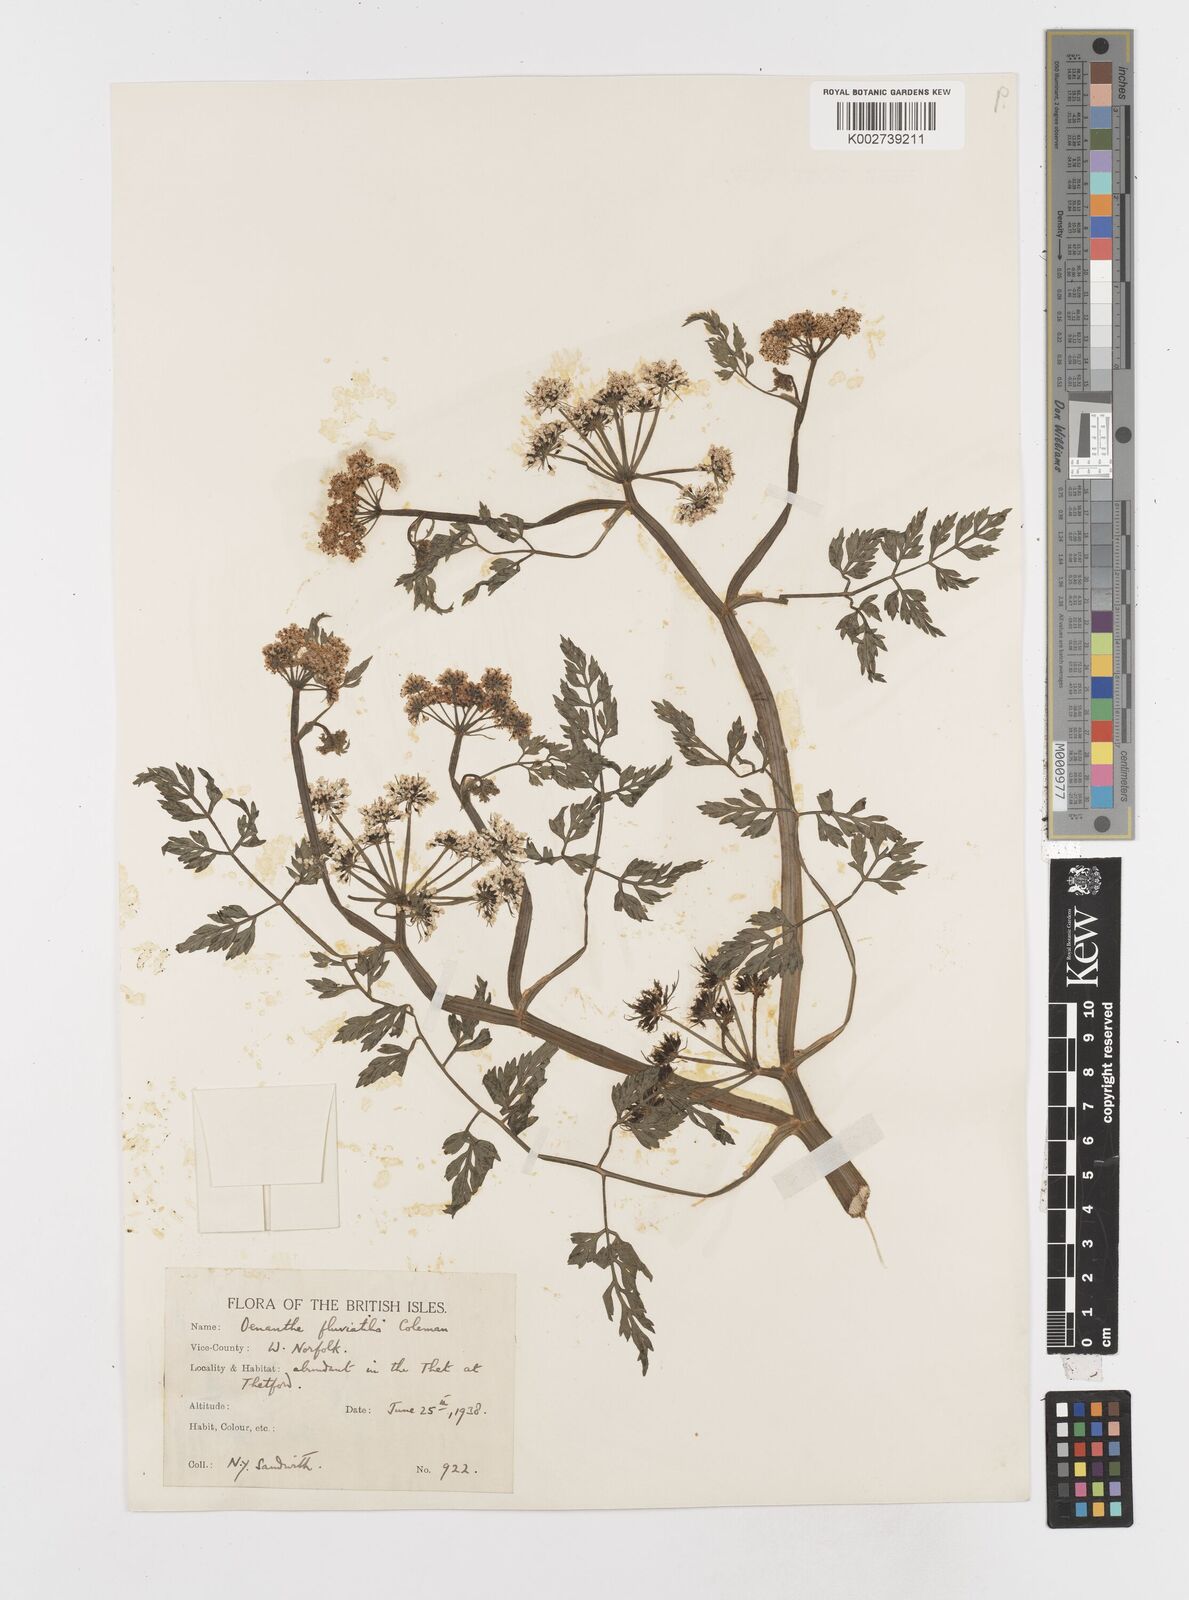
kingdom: Plantae
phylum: Tracheophyta
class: Magnoliopsida
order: Apiales
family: Apiaceae
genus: Oenanthe
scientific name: Oenanthe fluviatilis
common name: River water-dropwort
